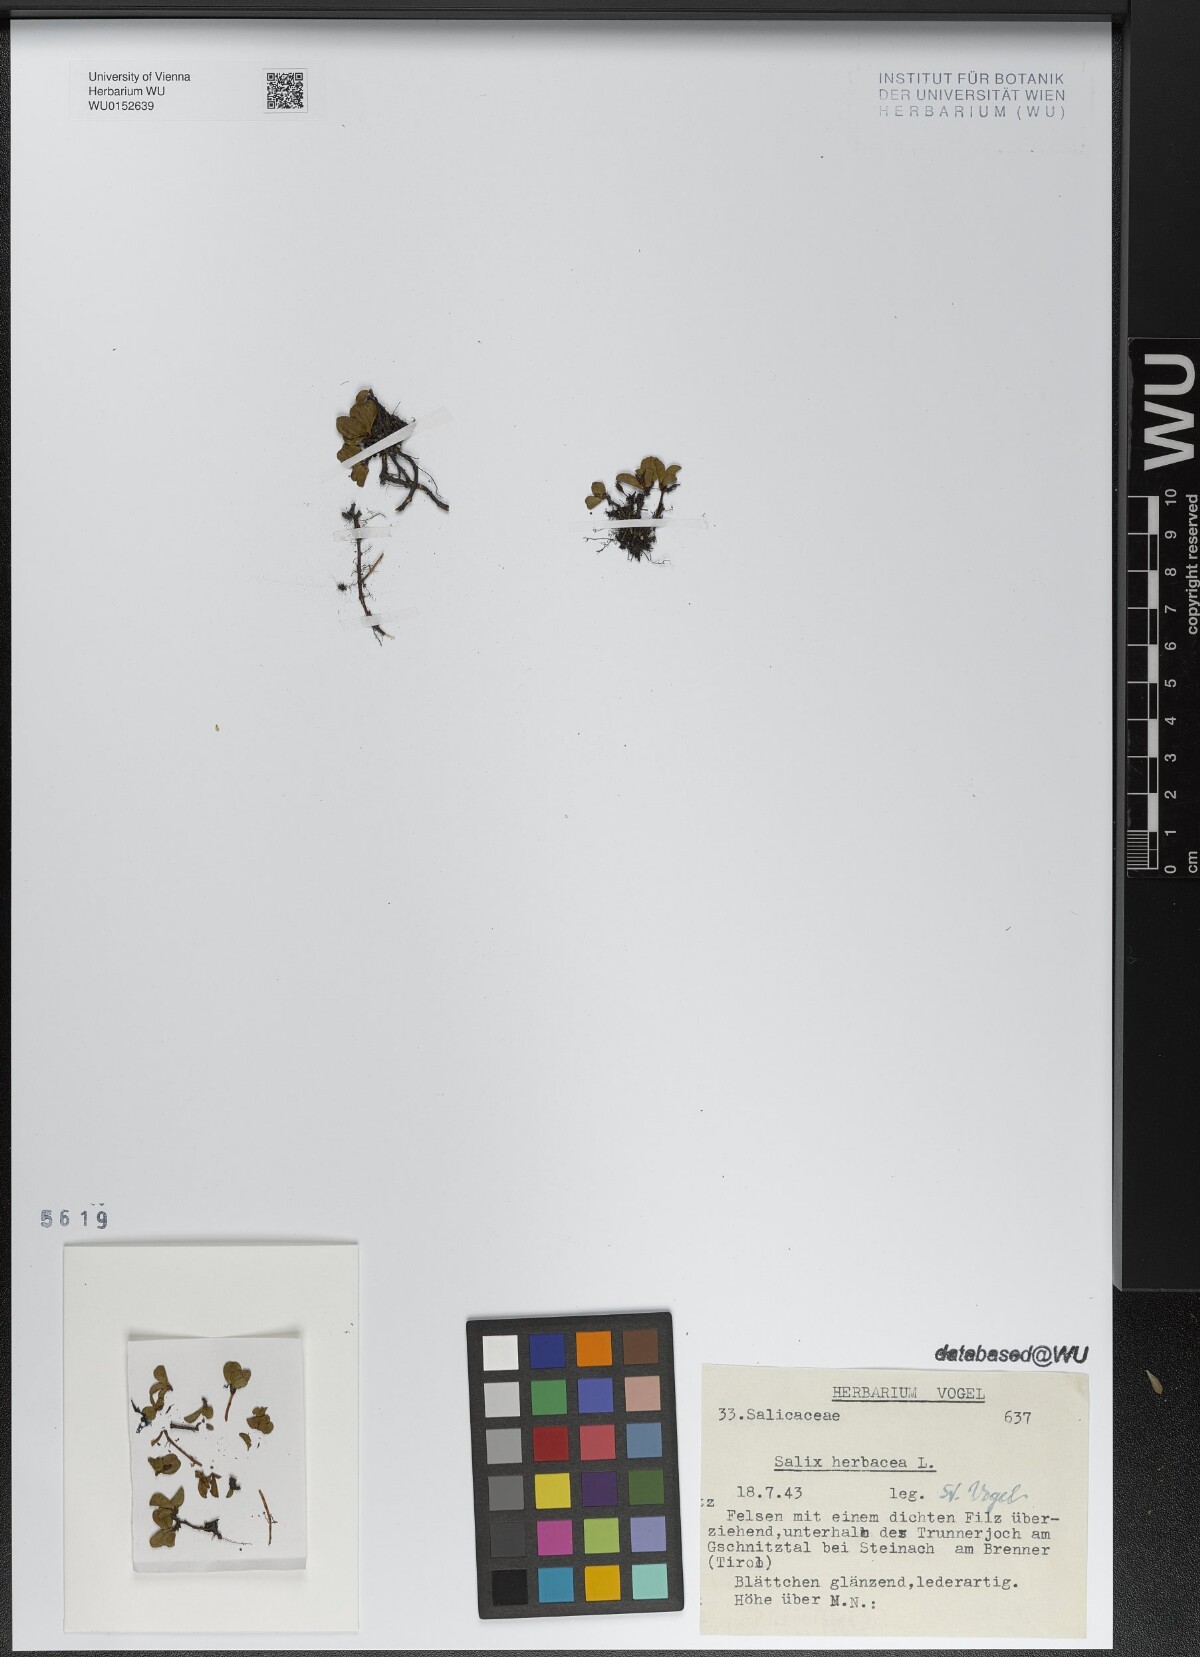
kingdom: Plantae
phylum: Tracheophyta
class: Magnoliopsida
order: Malpighiales
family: Salicaceae
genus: Salix
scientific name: Salix herbacea
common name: Dwarf willow
